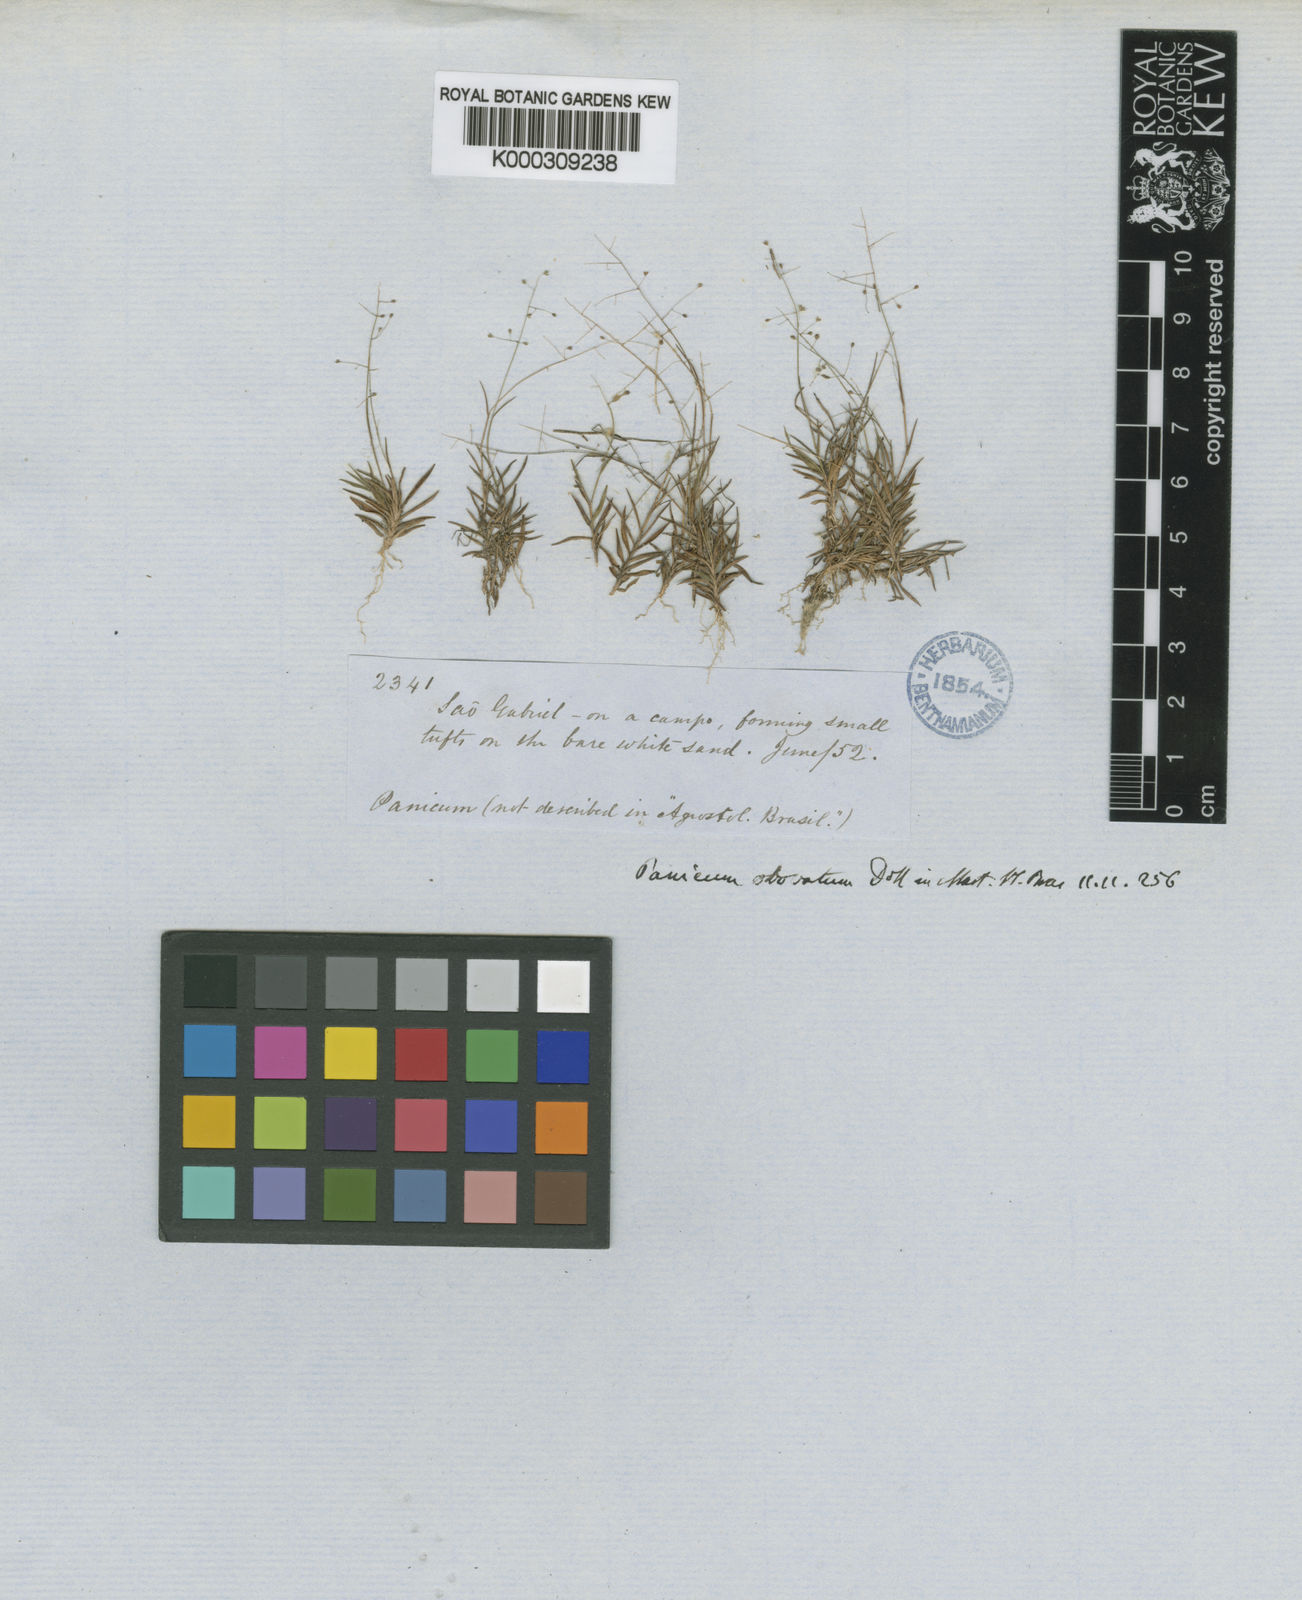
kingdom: Plantae
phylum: Tracheophyta
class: Liliopsida
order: Poales
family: Poaceae
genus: Trichanthecium
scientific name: Trichanthecium polycomum
